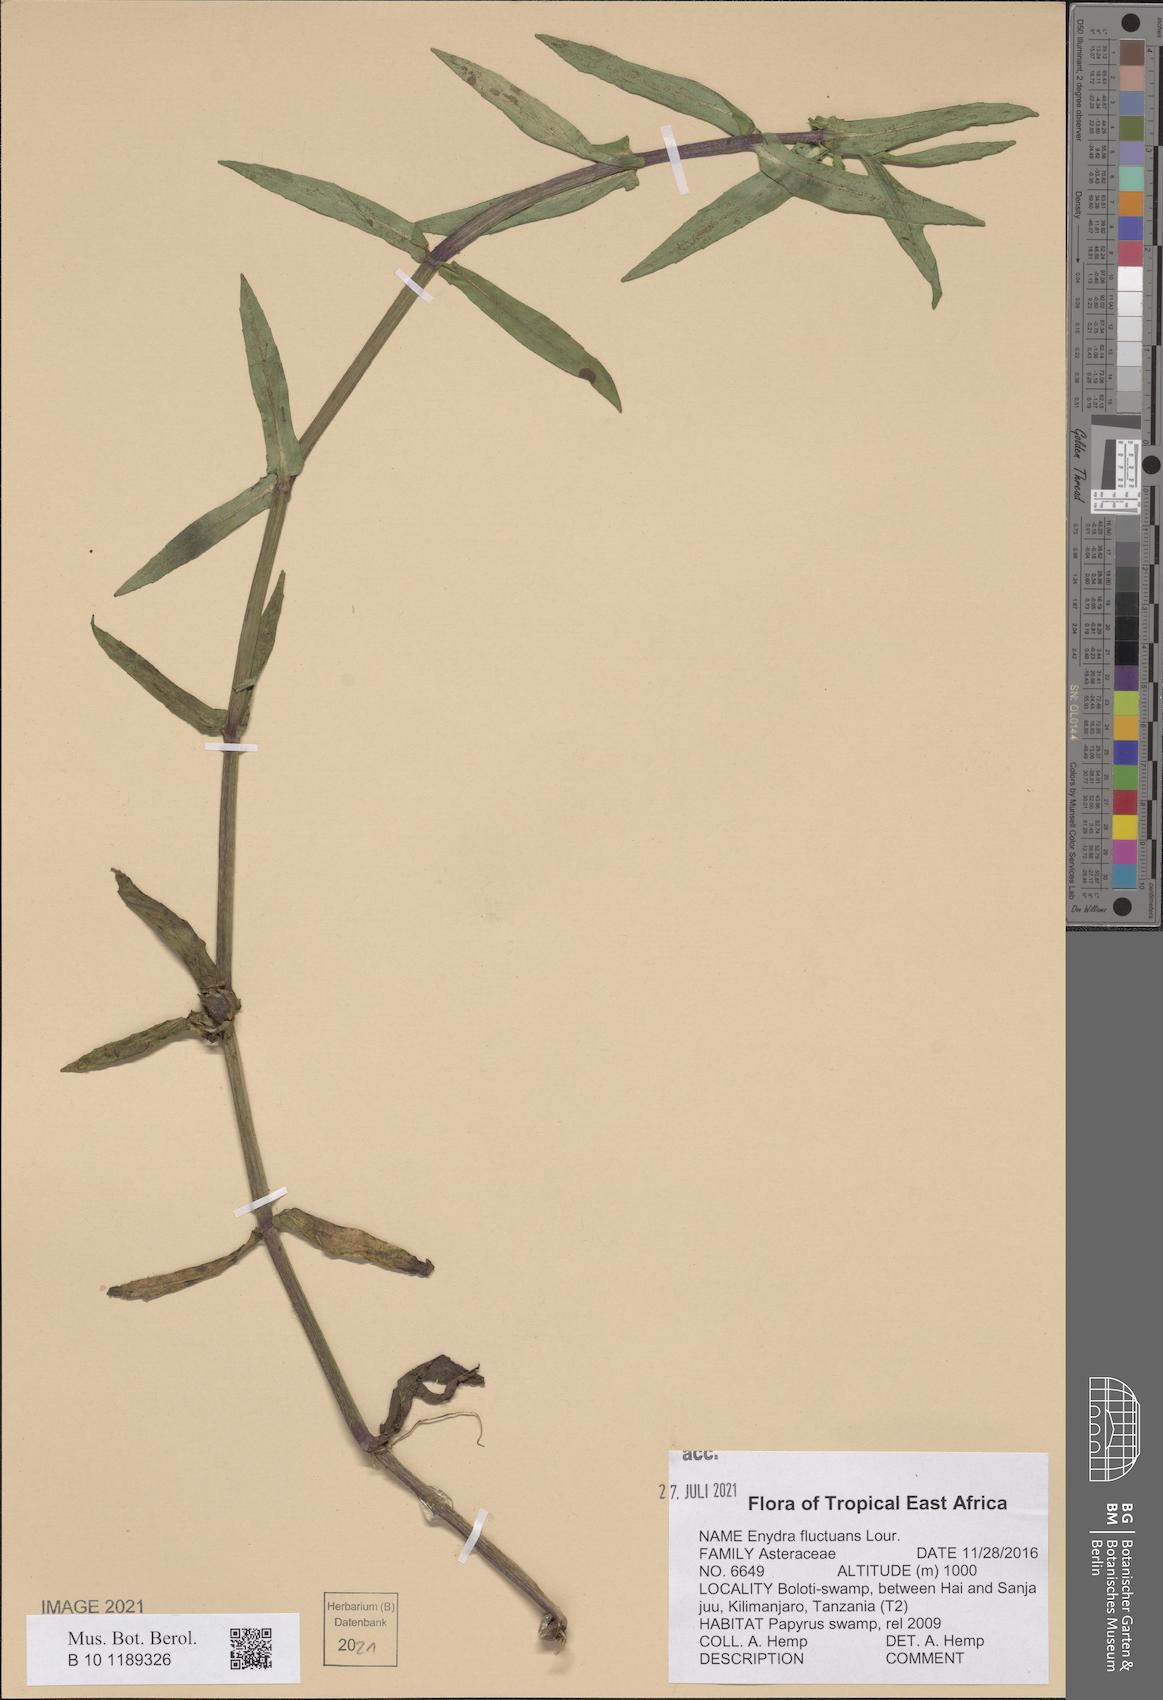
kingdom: Plantae
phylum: Tracheophyta
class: Magnoliopsida
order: Asterales
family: Asteraceae
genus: Enydra
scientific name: Enydra fluctuans
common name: Buffalo spinach
